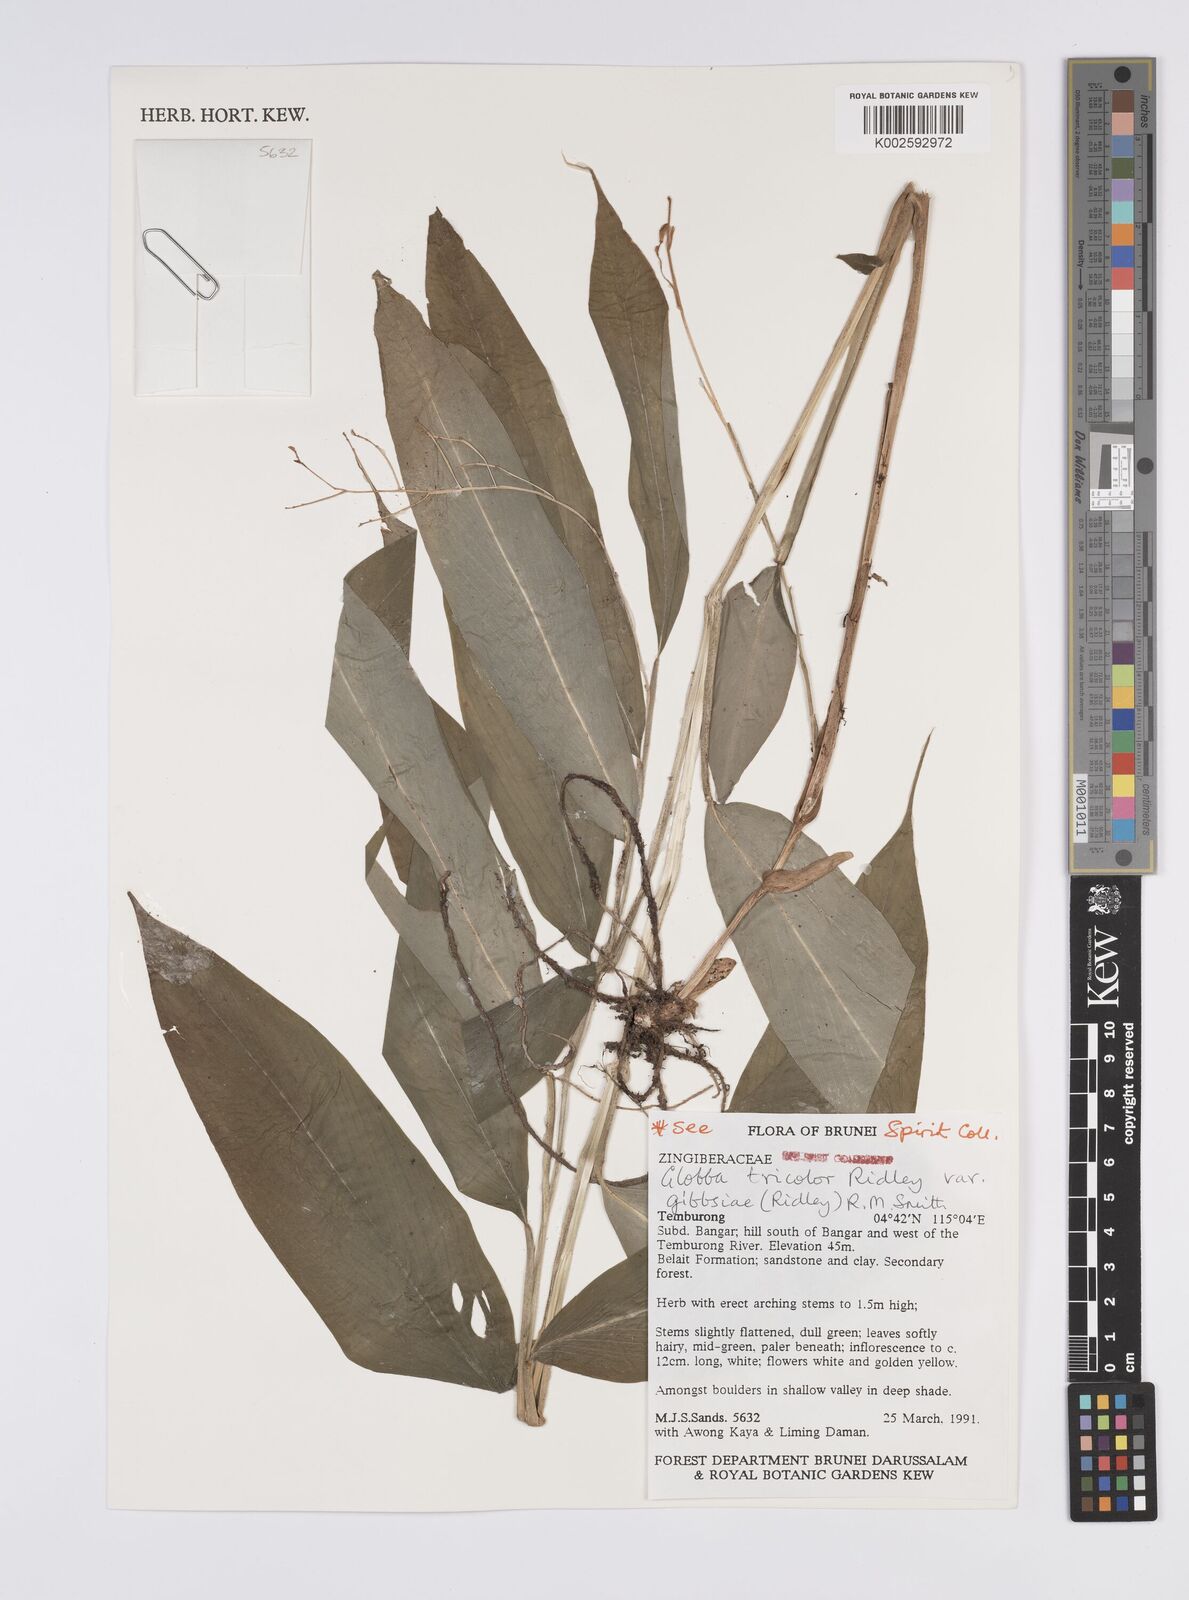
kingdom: Plantae
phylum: Tracheophyta
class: Liliopsida
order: Zingiberales
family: Zingiberaceae
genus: Globba
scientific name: Globba tricolor
